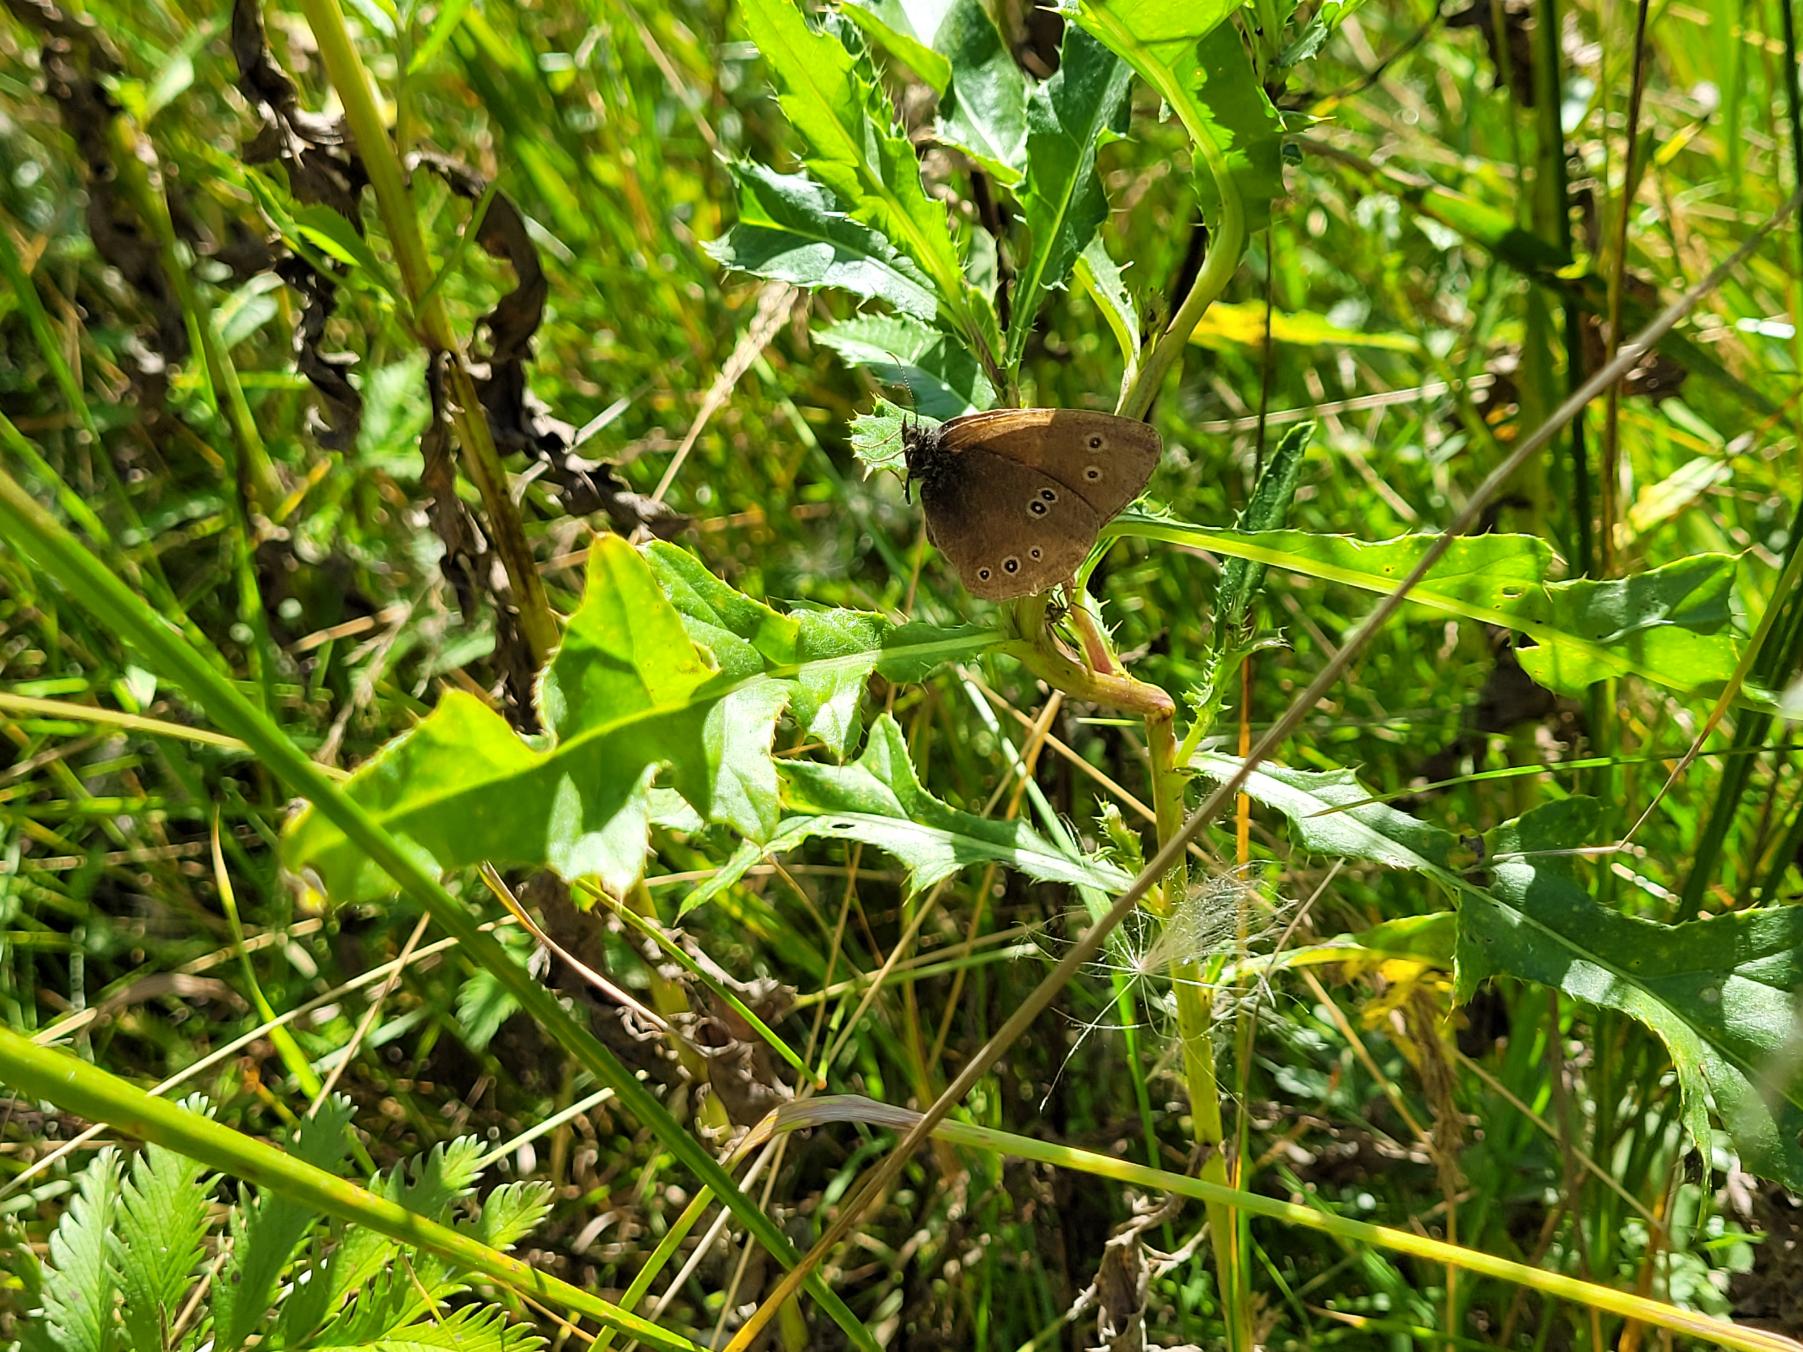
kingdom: Animalia
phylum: Arthropoda
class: Insecta
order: Lepidoptera
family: Nymphalidae
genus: Aphantopus
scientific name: Aphantopus hyperantus
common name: Engrandøje
